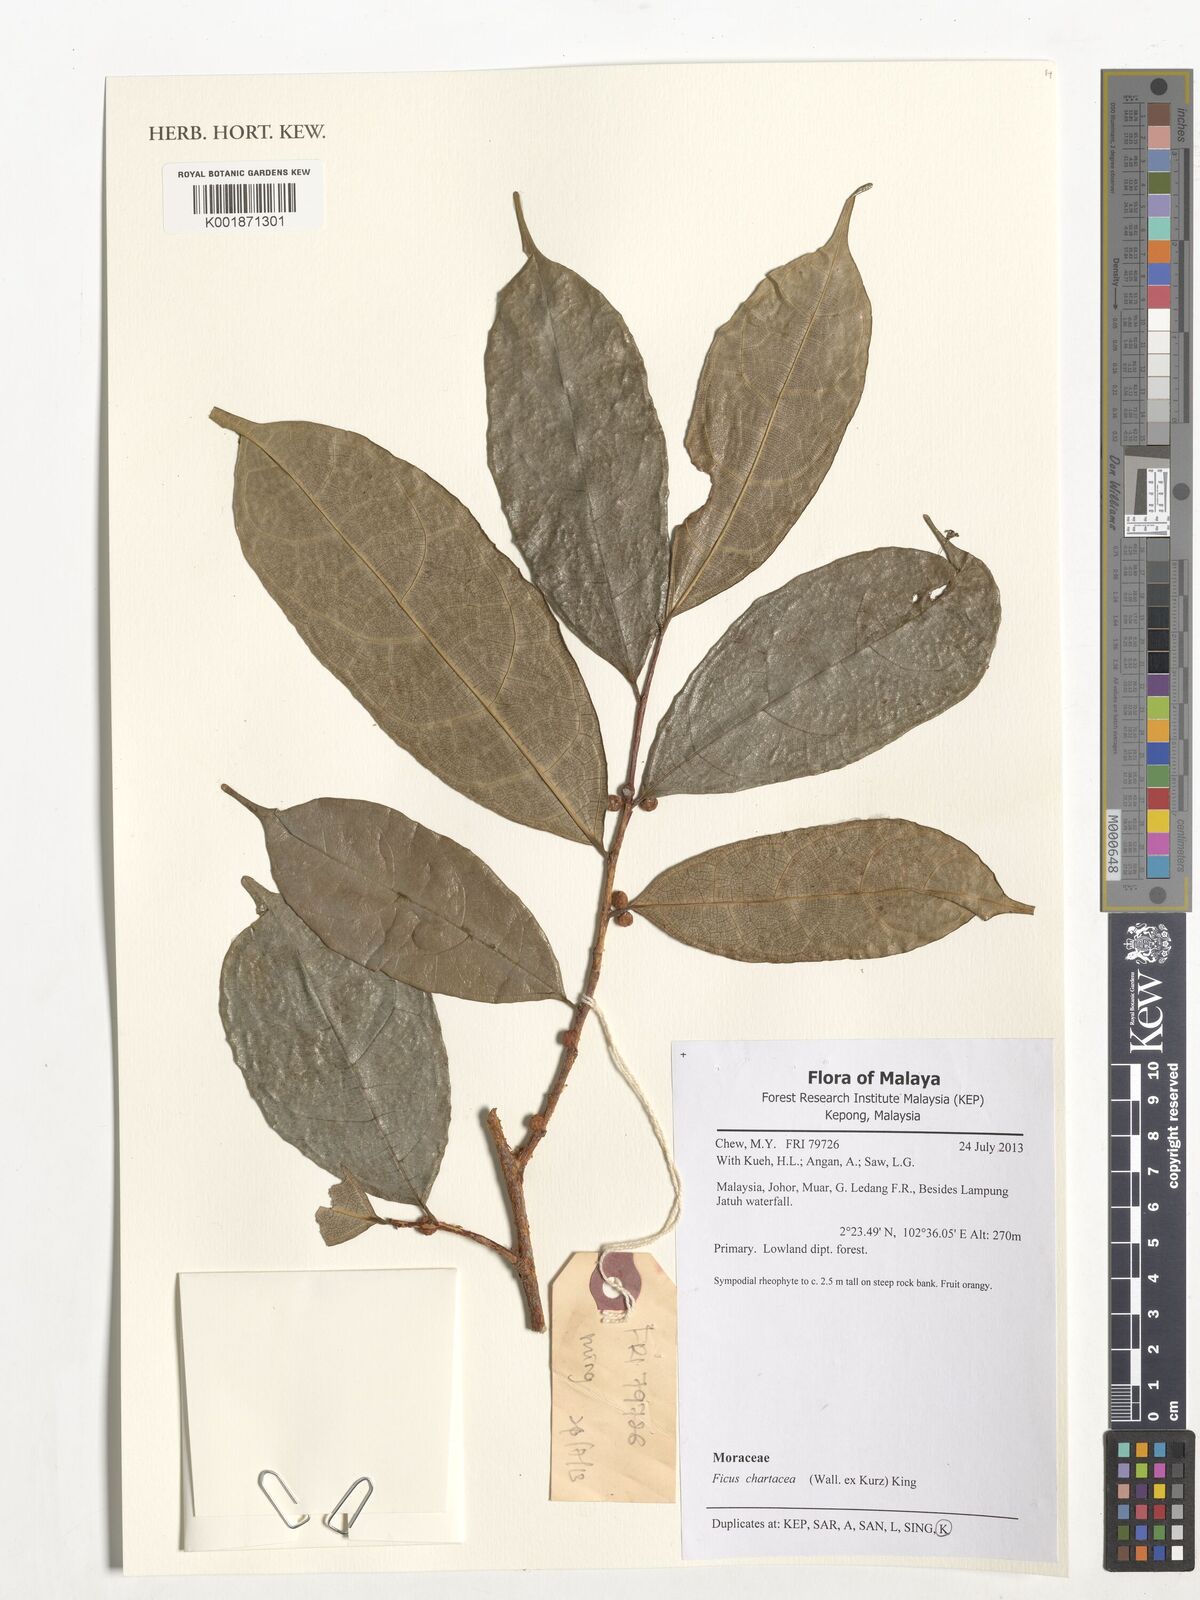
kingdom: Plantae
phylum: Tracheophyta
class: Magnoliopsida
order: Rosales
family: Moraceae
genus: Ficus
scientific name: Ficus chartacea
